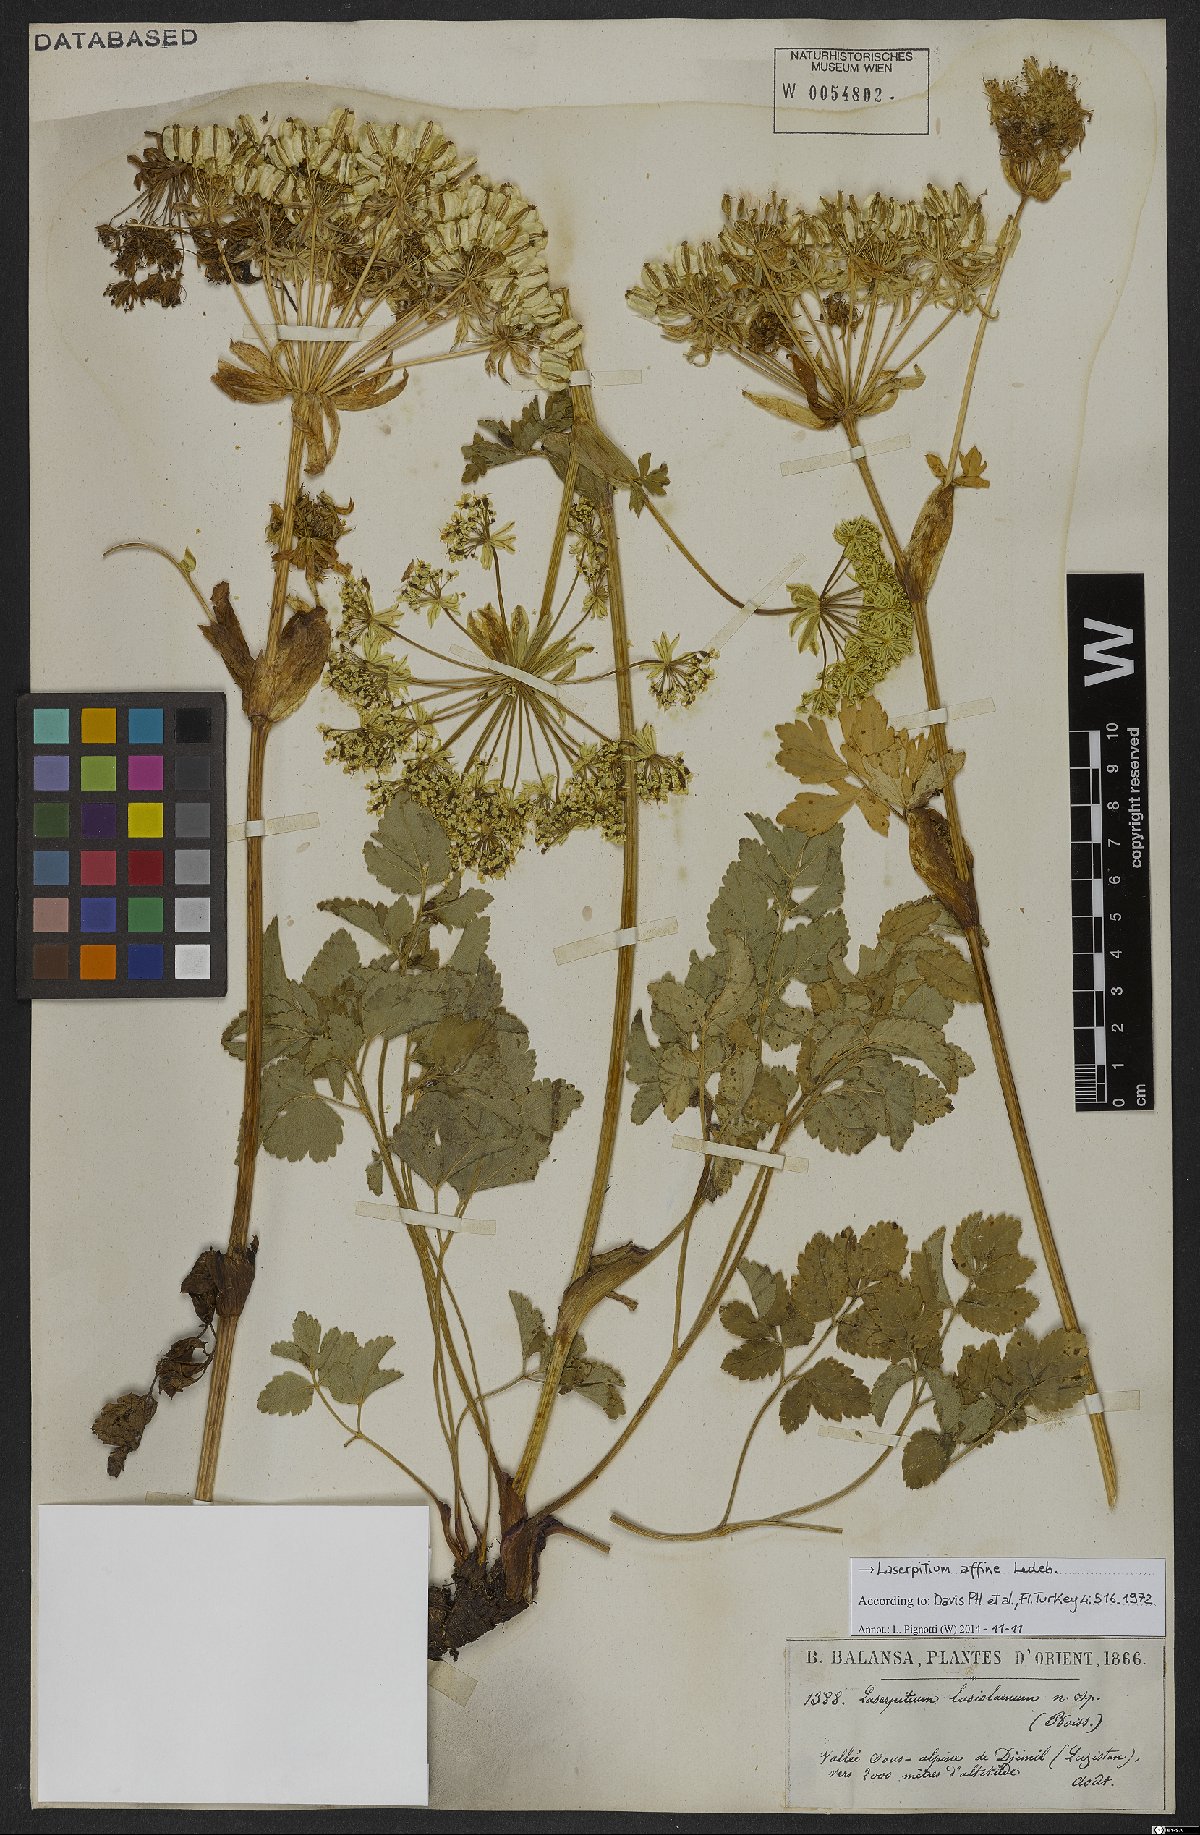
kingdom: Plantae
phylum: Tracheophyta
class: Magnoliopsida
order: Apiales
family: Apiaceae
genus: Laser
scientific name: Laser affine
